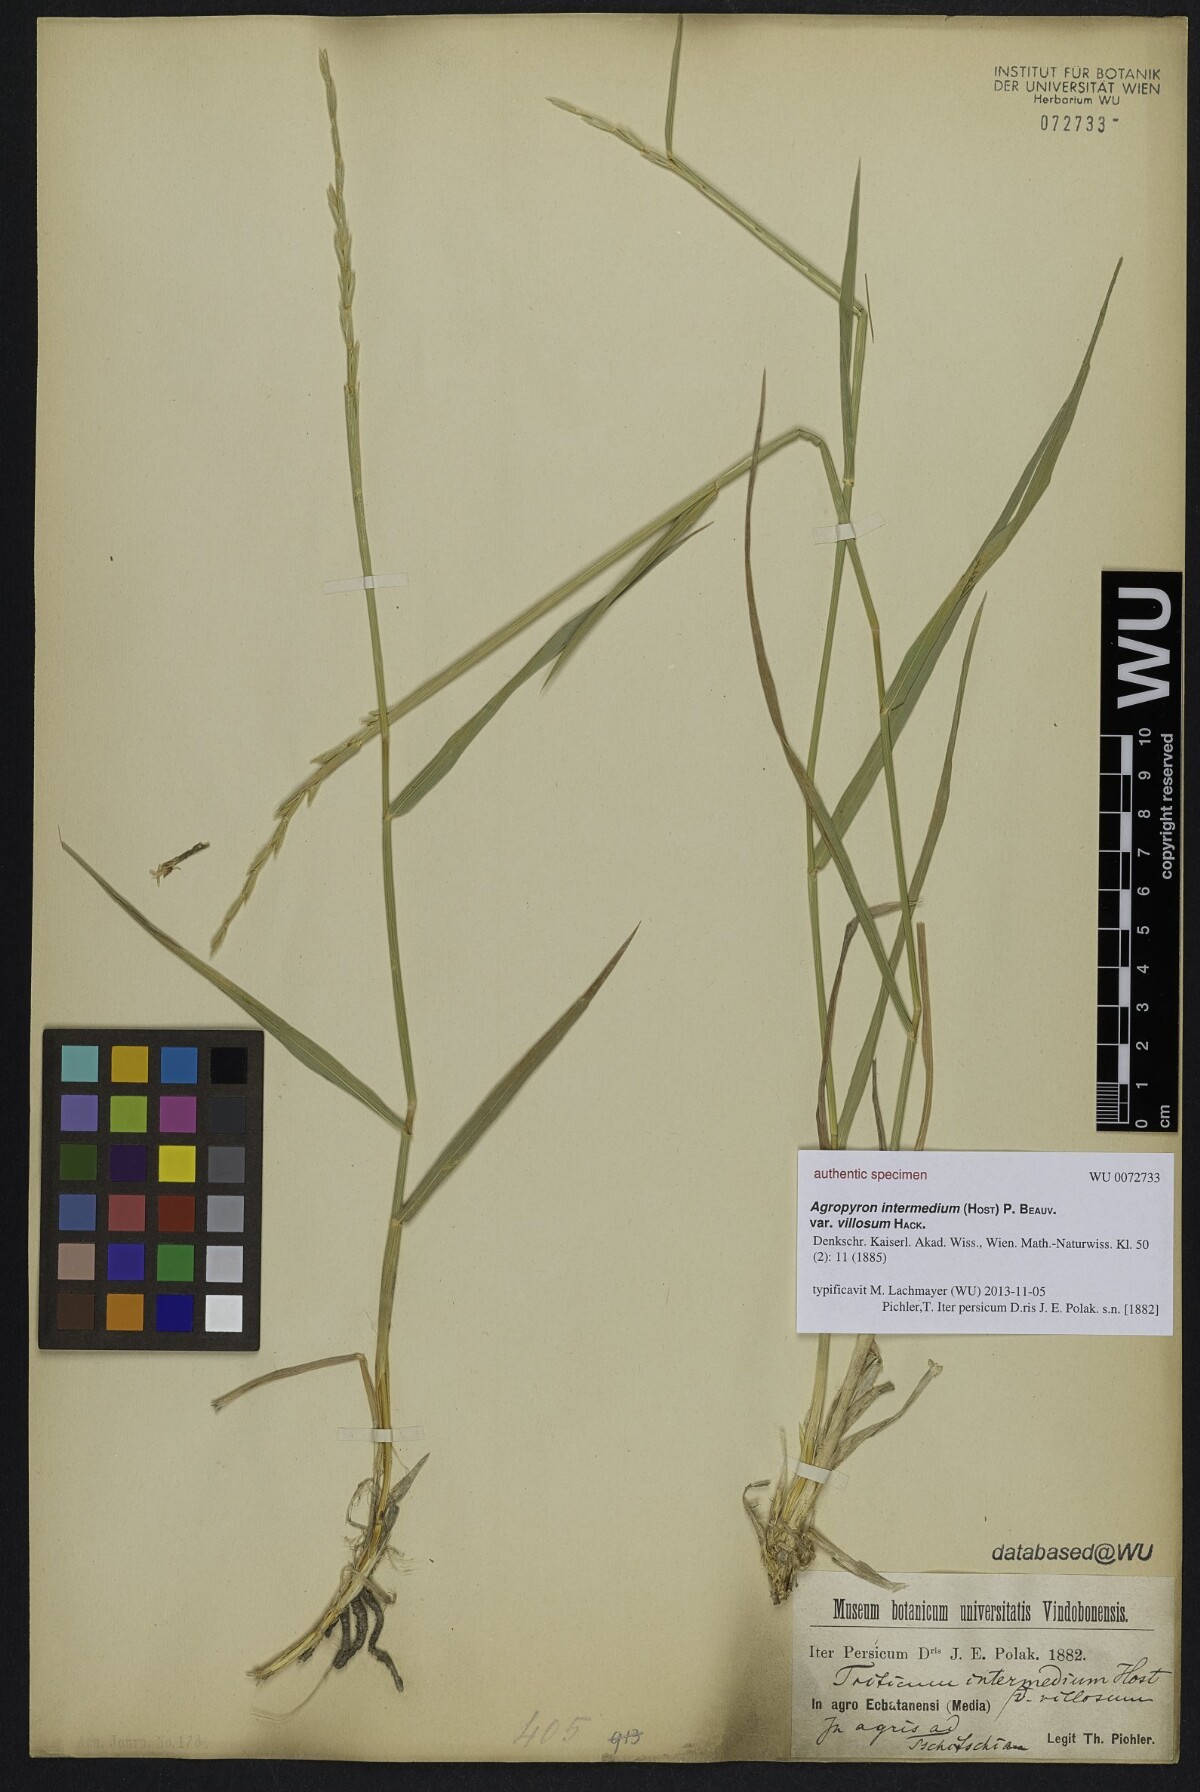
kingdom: Plantae
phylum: Tracheophyta
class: Liliopsida
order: Poales
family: Poaceae
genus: Thinopyrum
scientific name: Thinopyrum intermedium
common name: Intermediate wheatgrass
